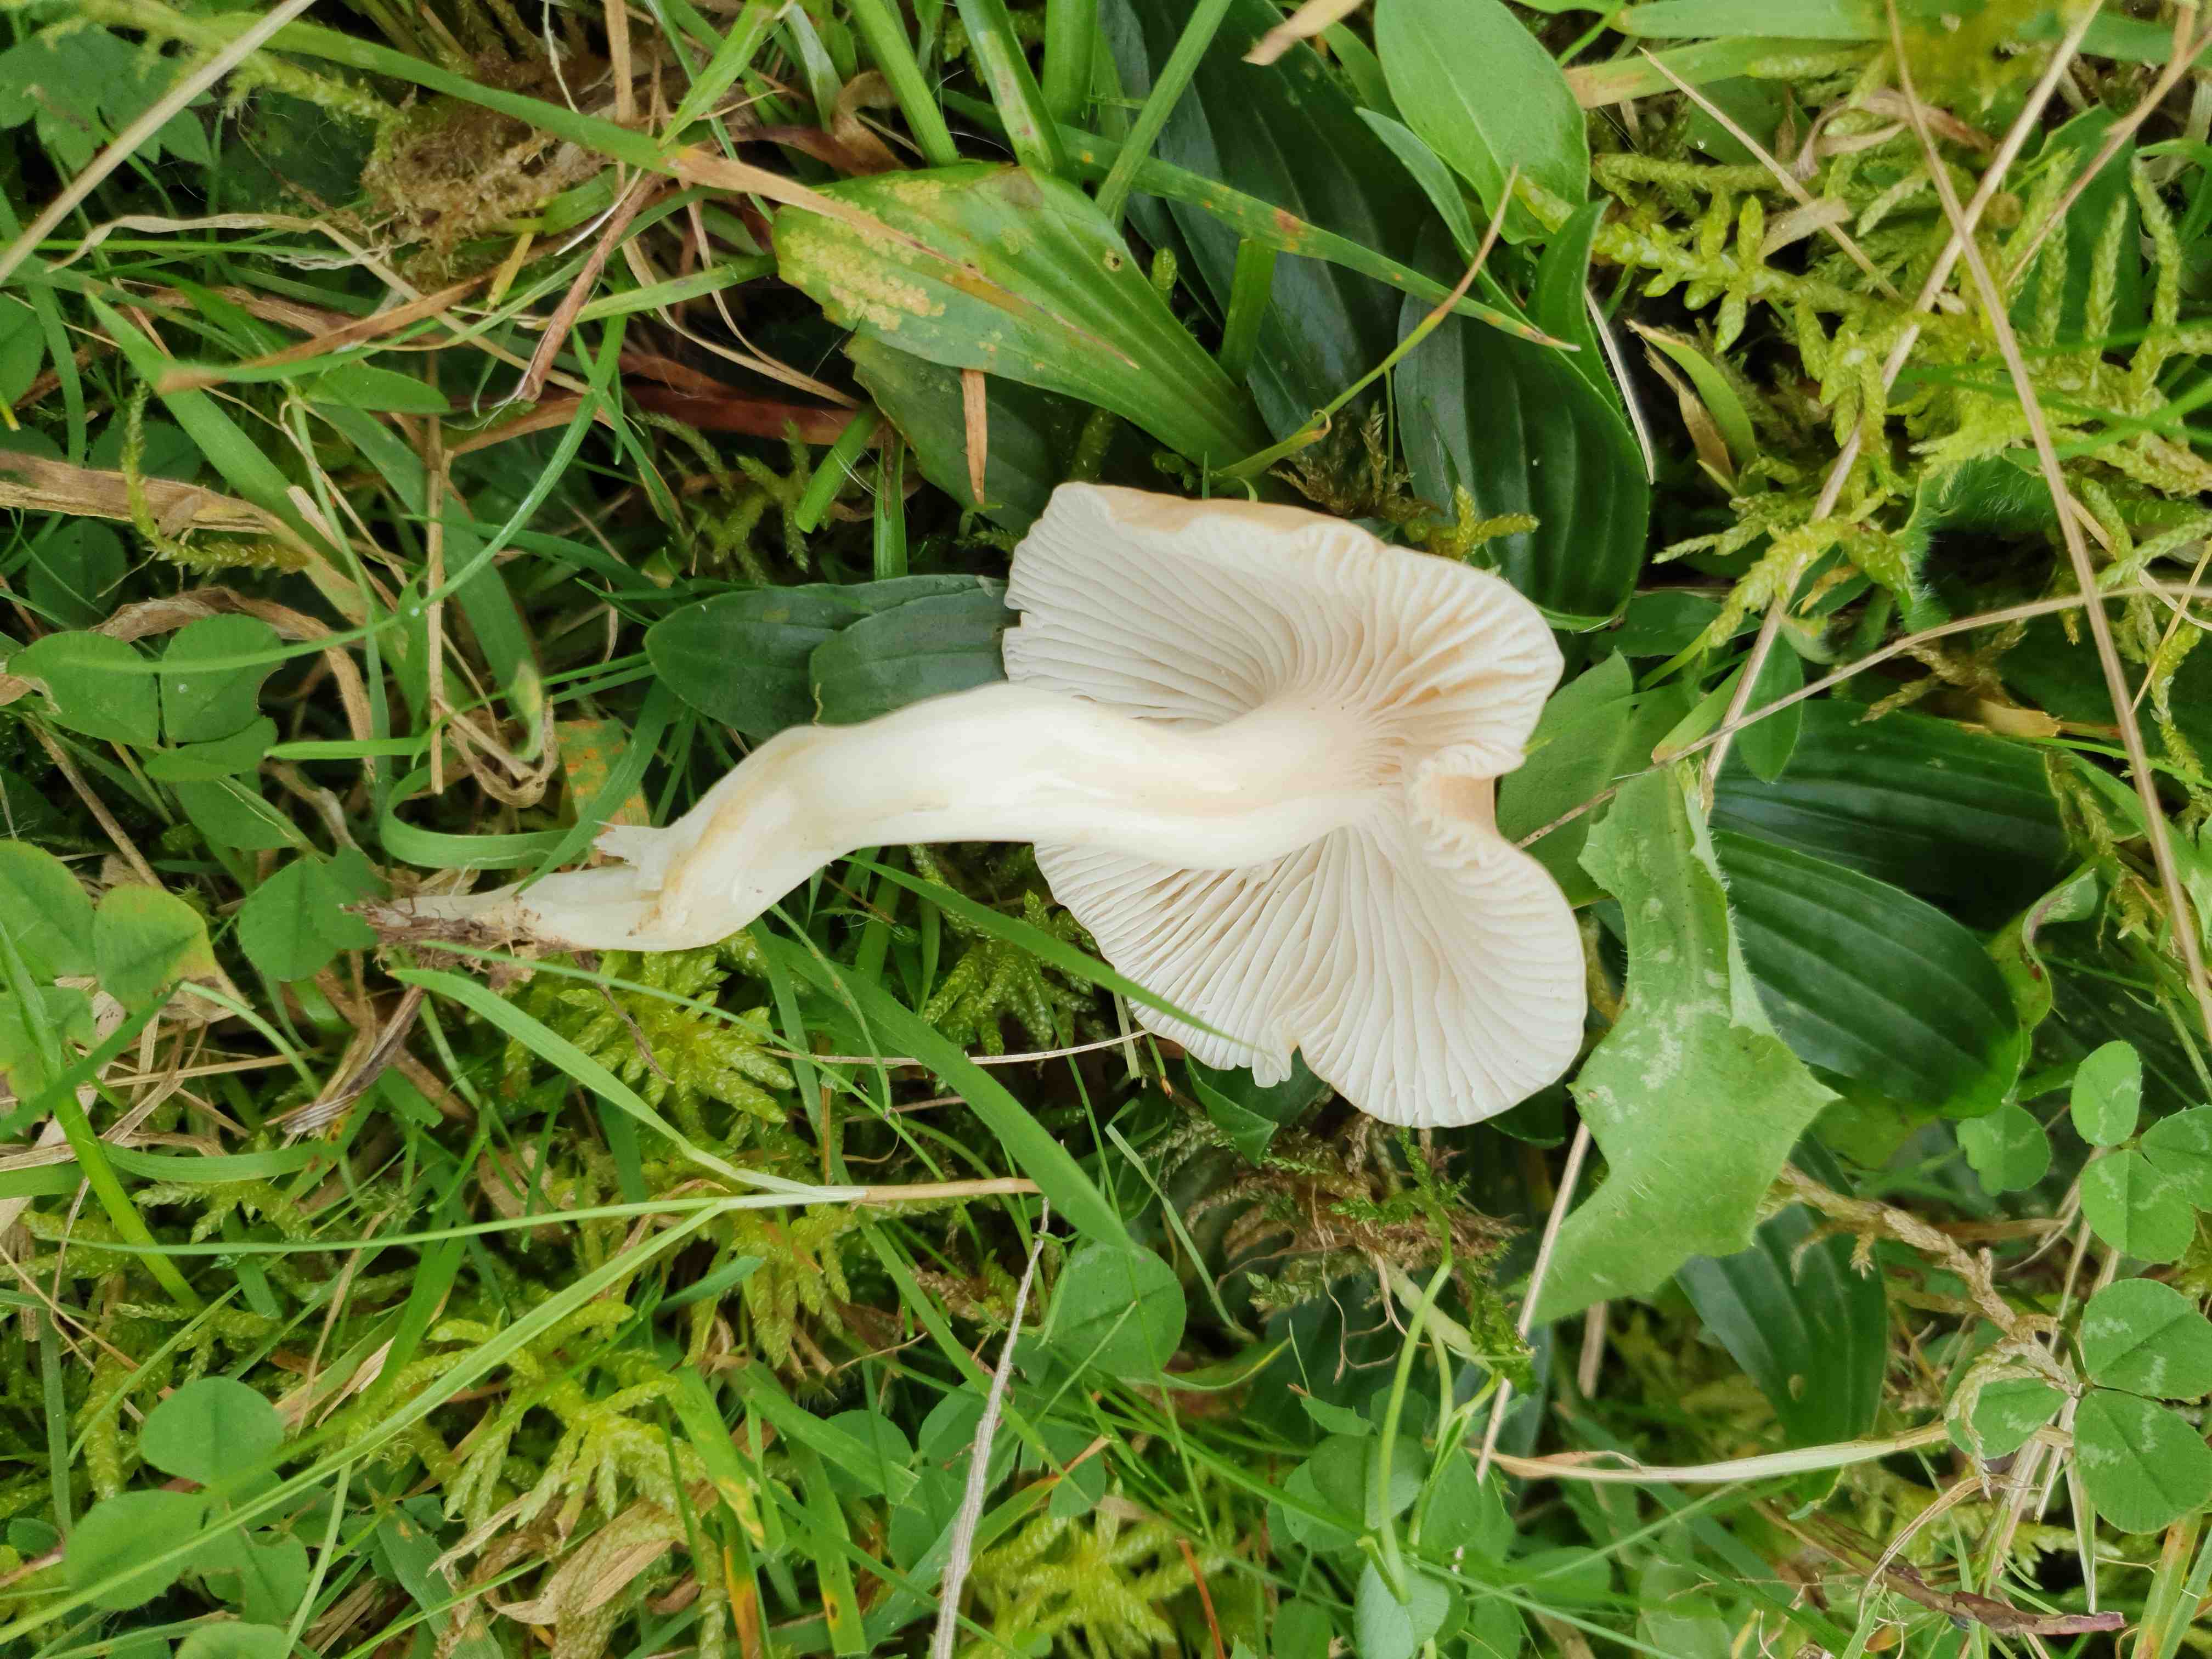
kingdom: Fungi
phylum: Basidiomycota
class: Agaricomycetes
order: Agaricales
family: Hygrophoraceae
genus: Cuphophyllus
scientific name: Cuphophyllus
